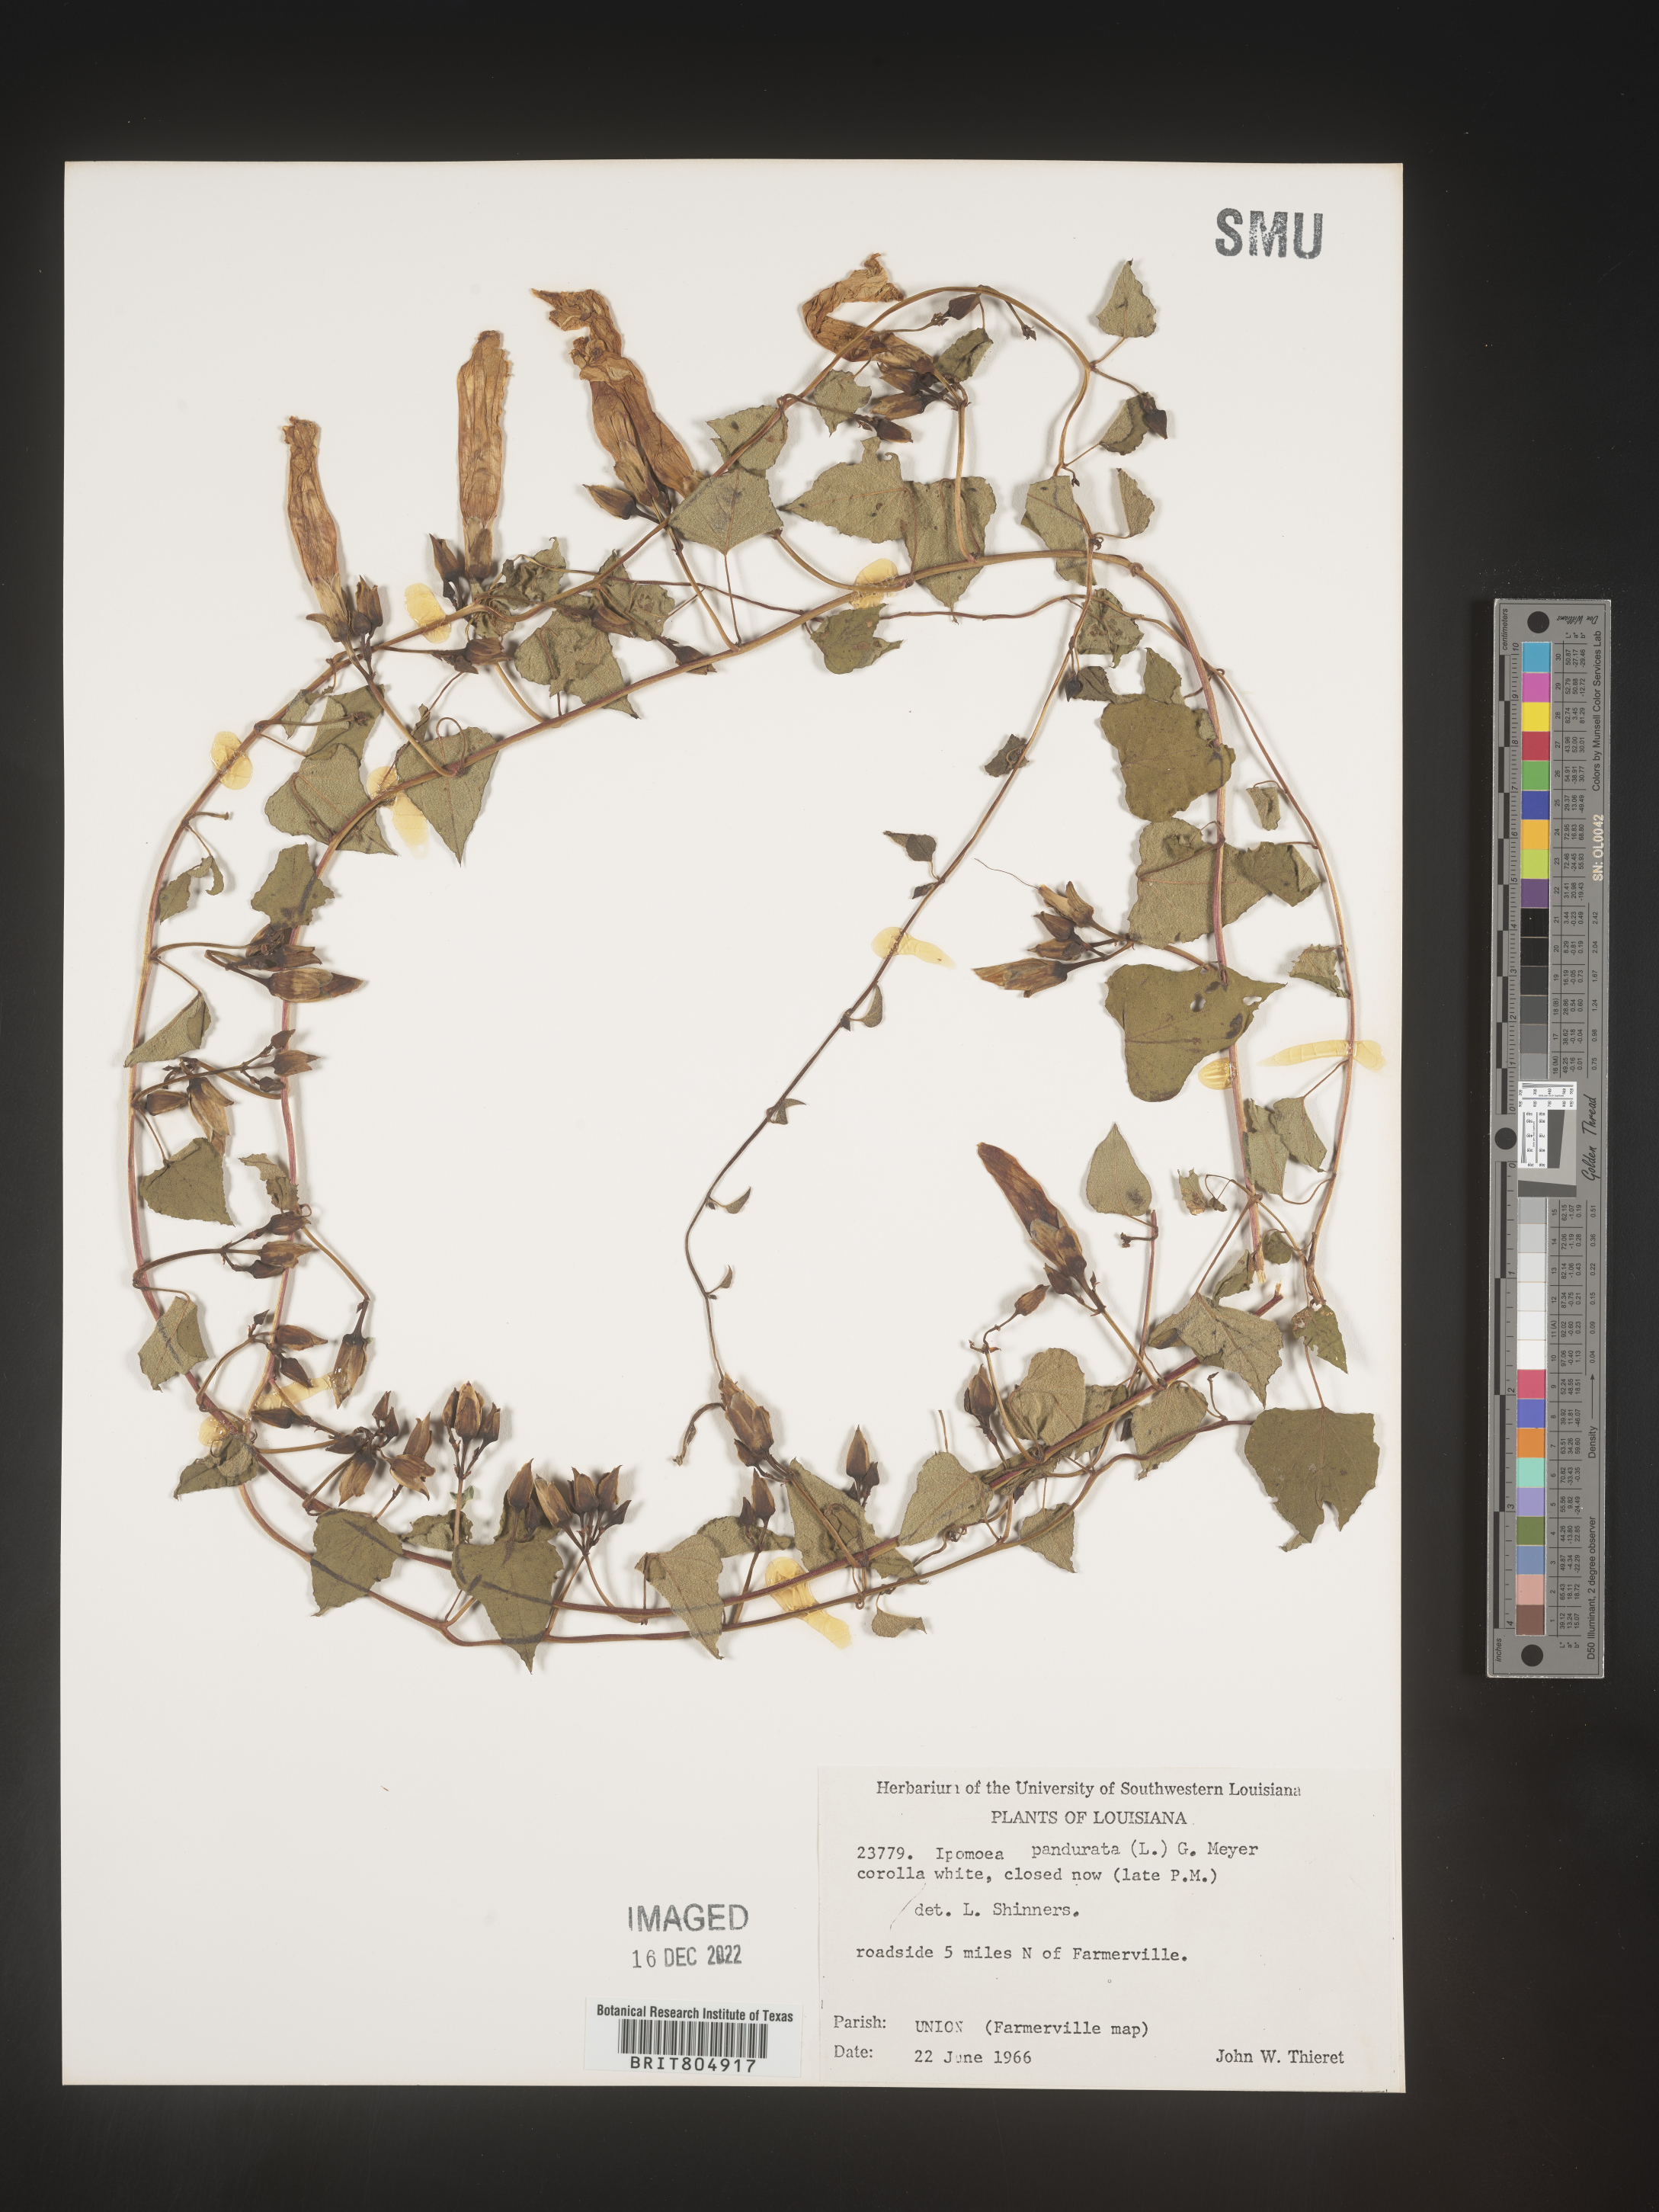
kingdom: Plantae
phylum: Tracheophyta
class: Magnoliopsida
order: Solanales
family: Convolvulaceae
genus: Ipomoea
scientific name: Ipomoea pandurata
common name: Man-of-the-earth
